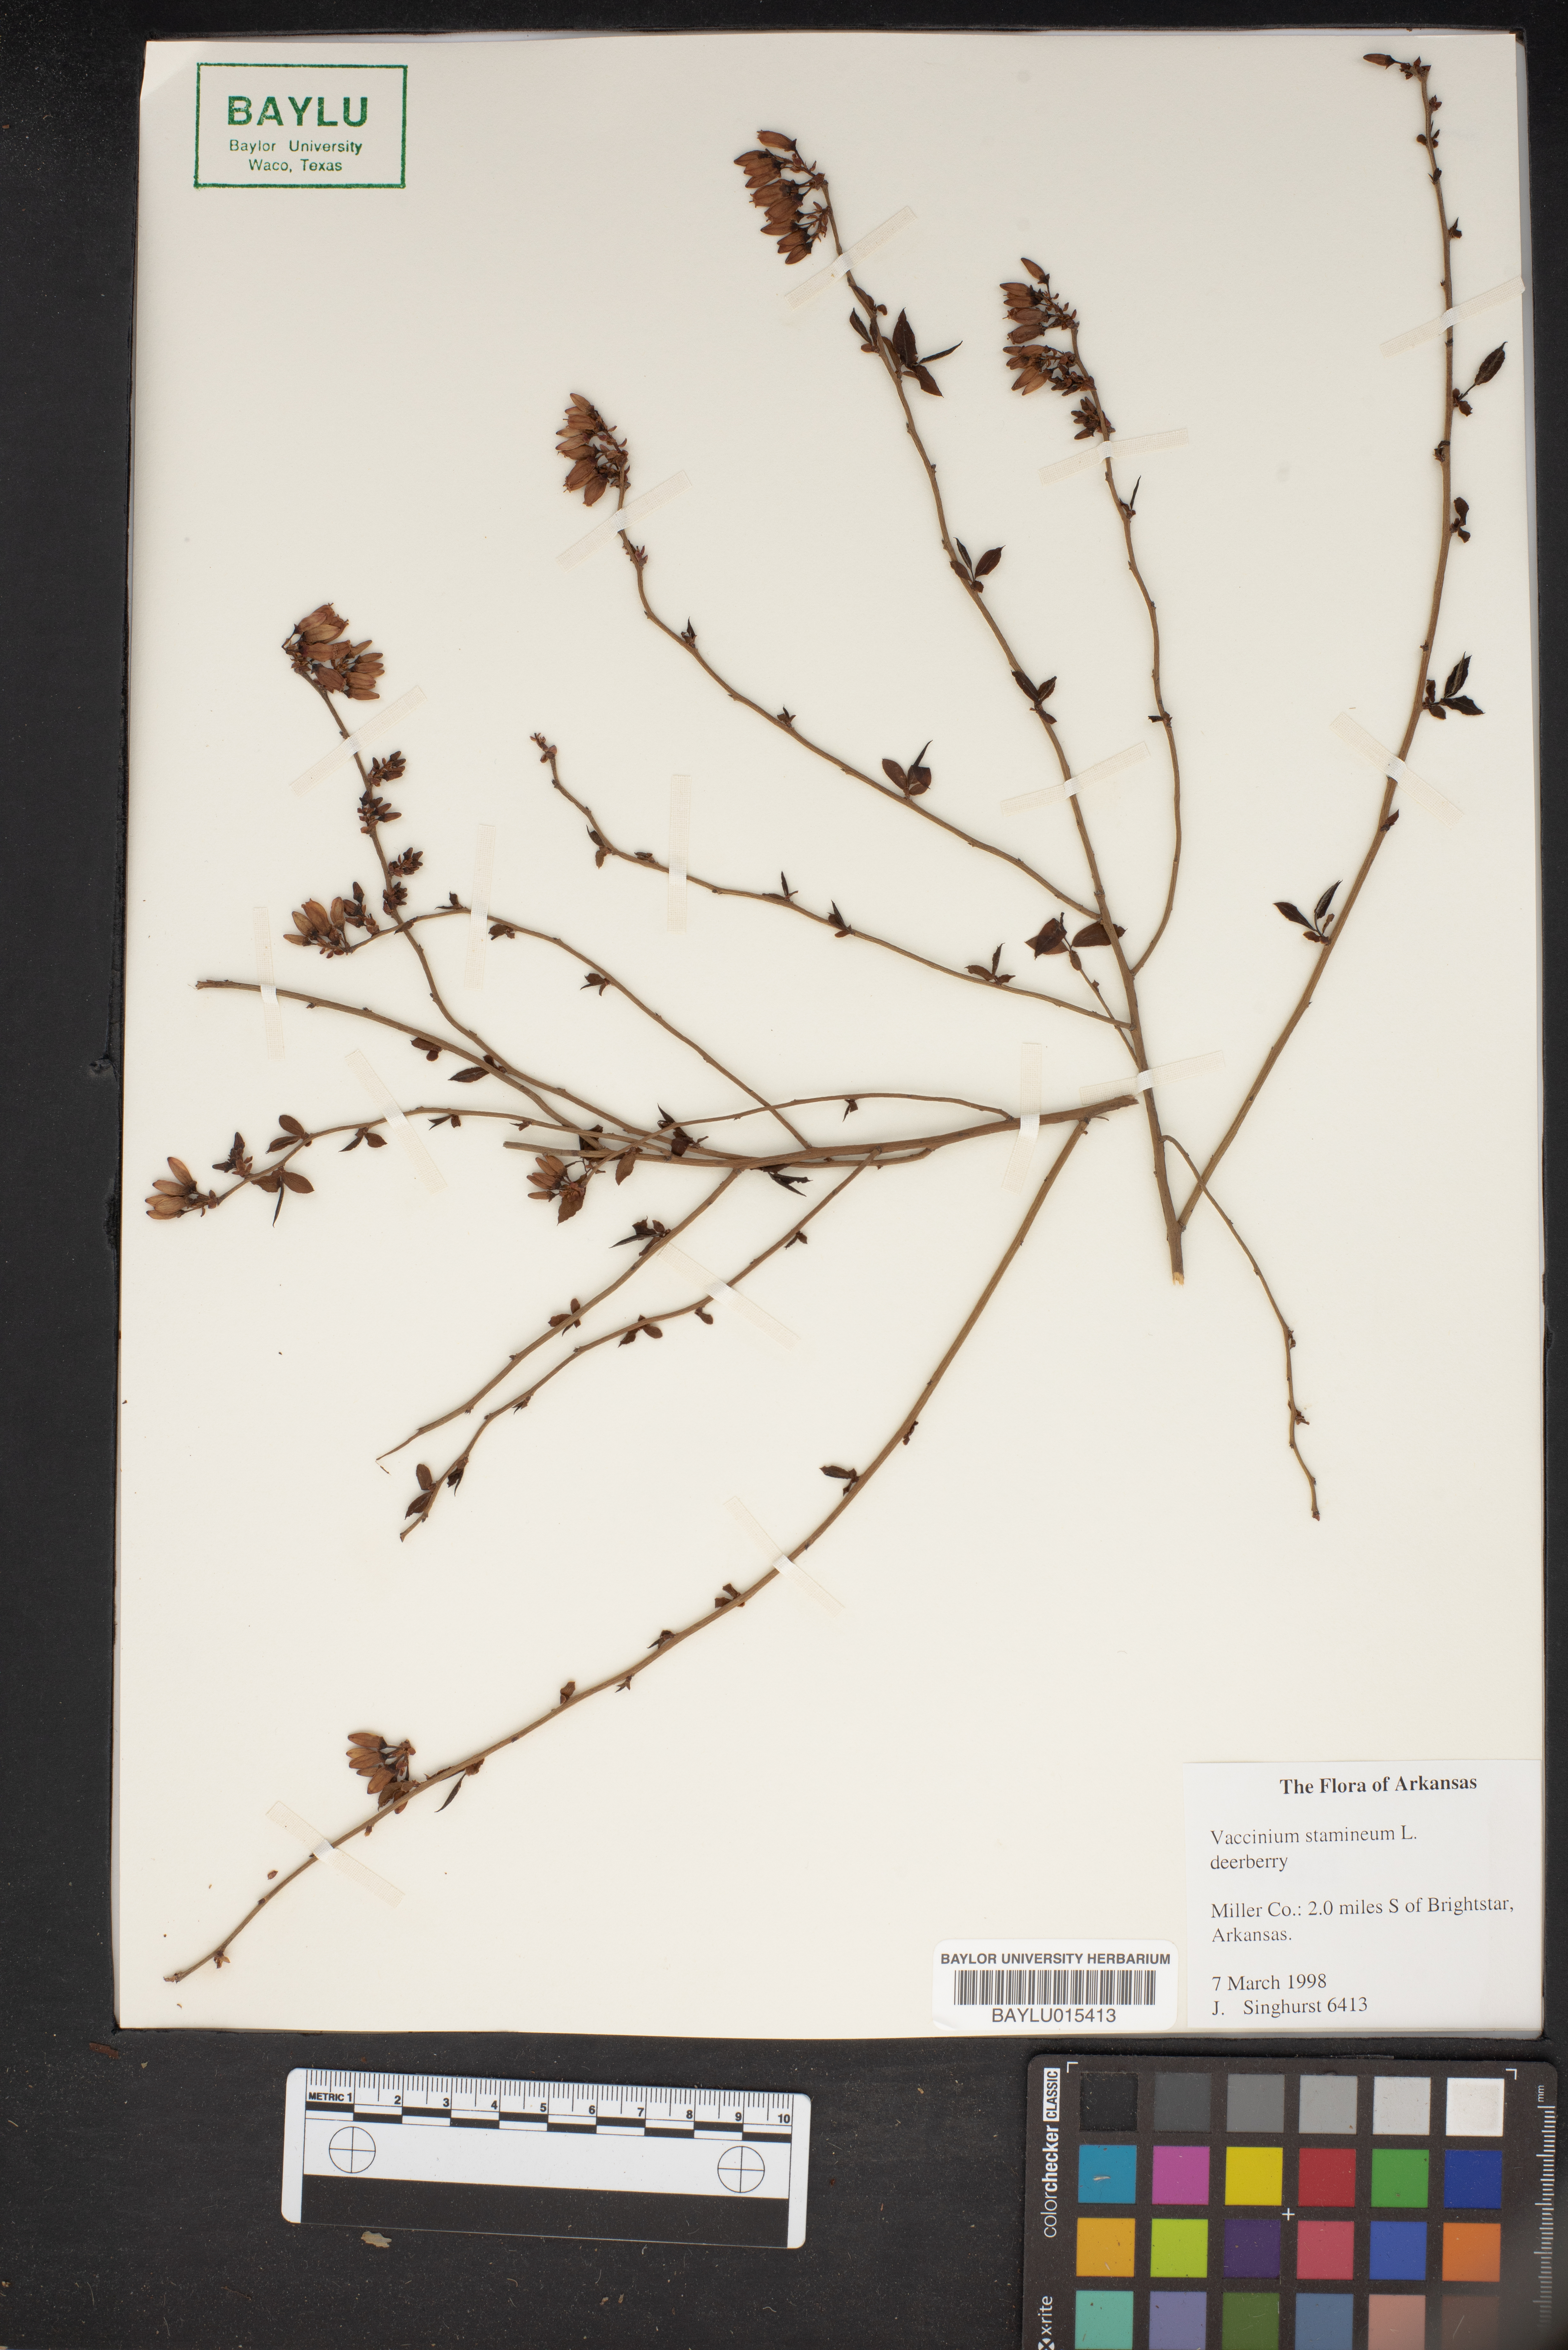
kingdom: Plantae
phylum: Tracheophyta
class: Magnoliopsida
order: Ericales
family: Ericaceae
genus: Vaccinium
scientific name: Vaccinium stamineum
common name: Deerberry
